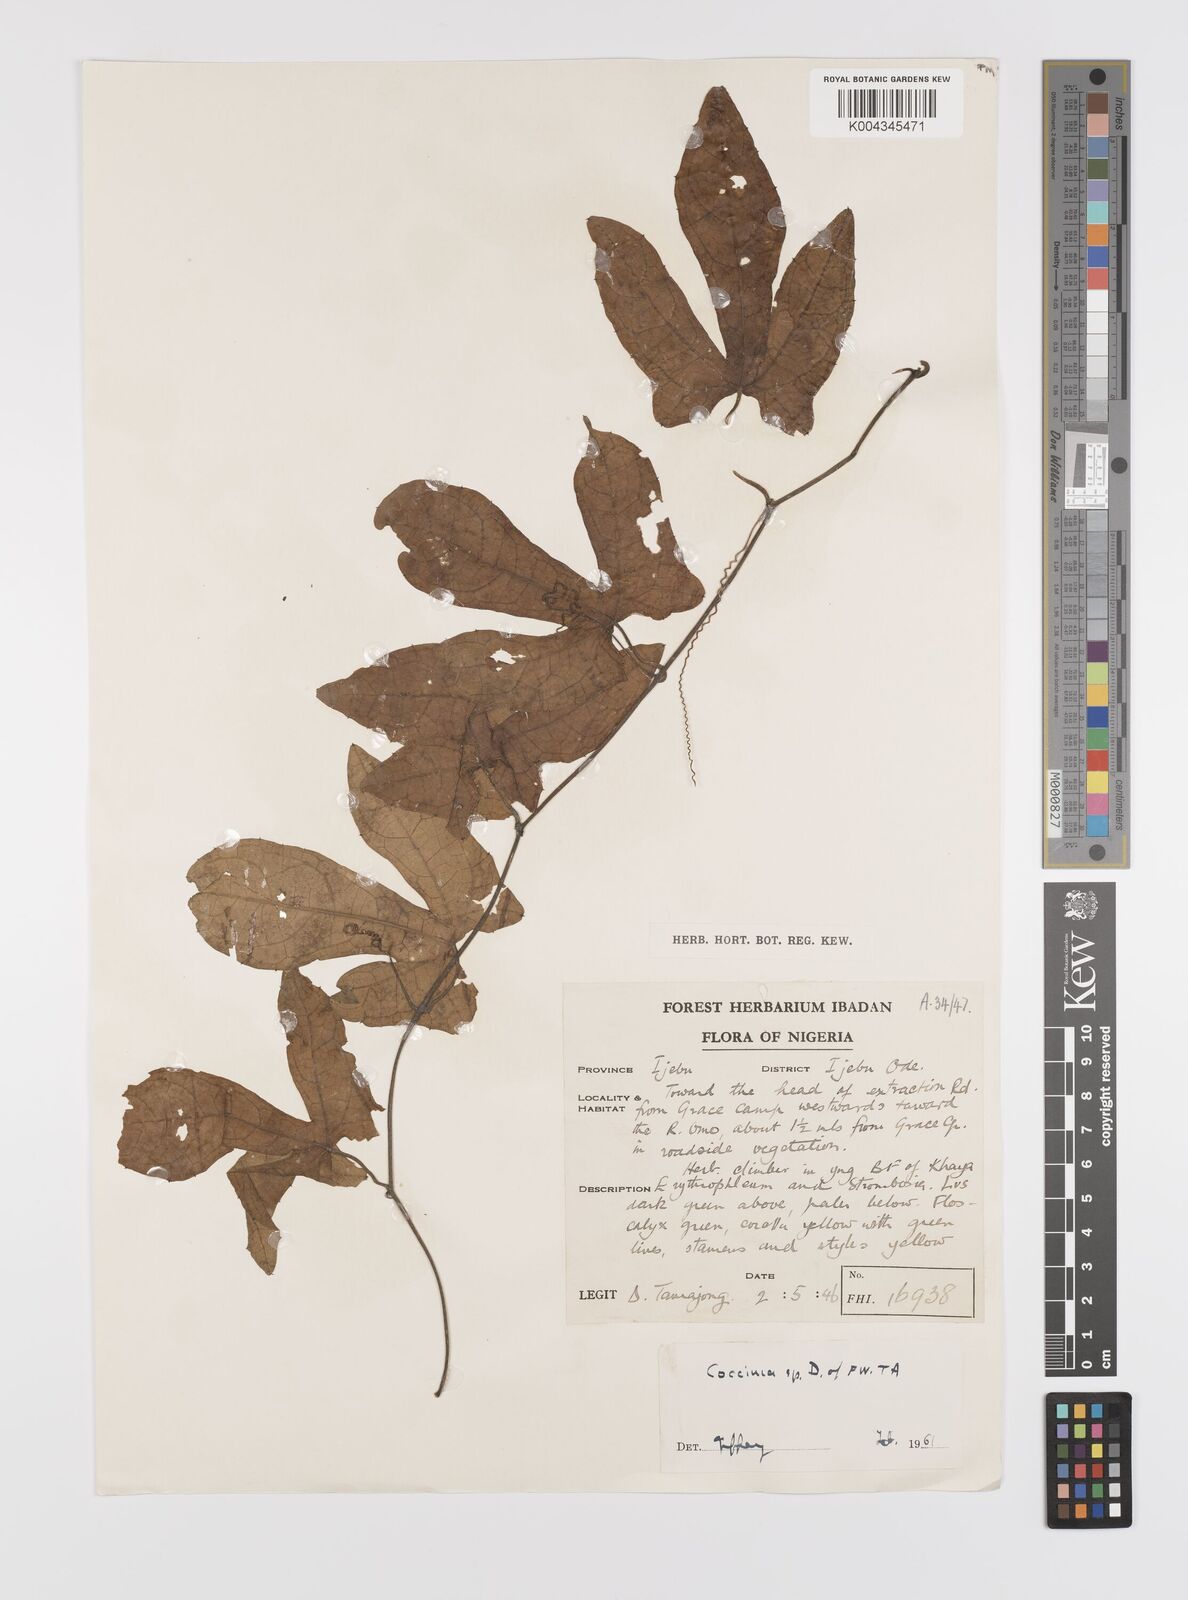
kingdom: Plantae
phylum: Tracheophyta
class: Magnoliopsida
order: Cucurbitales
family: Cucurbitaceae
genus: Coccinia
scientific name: Coccinia
